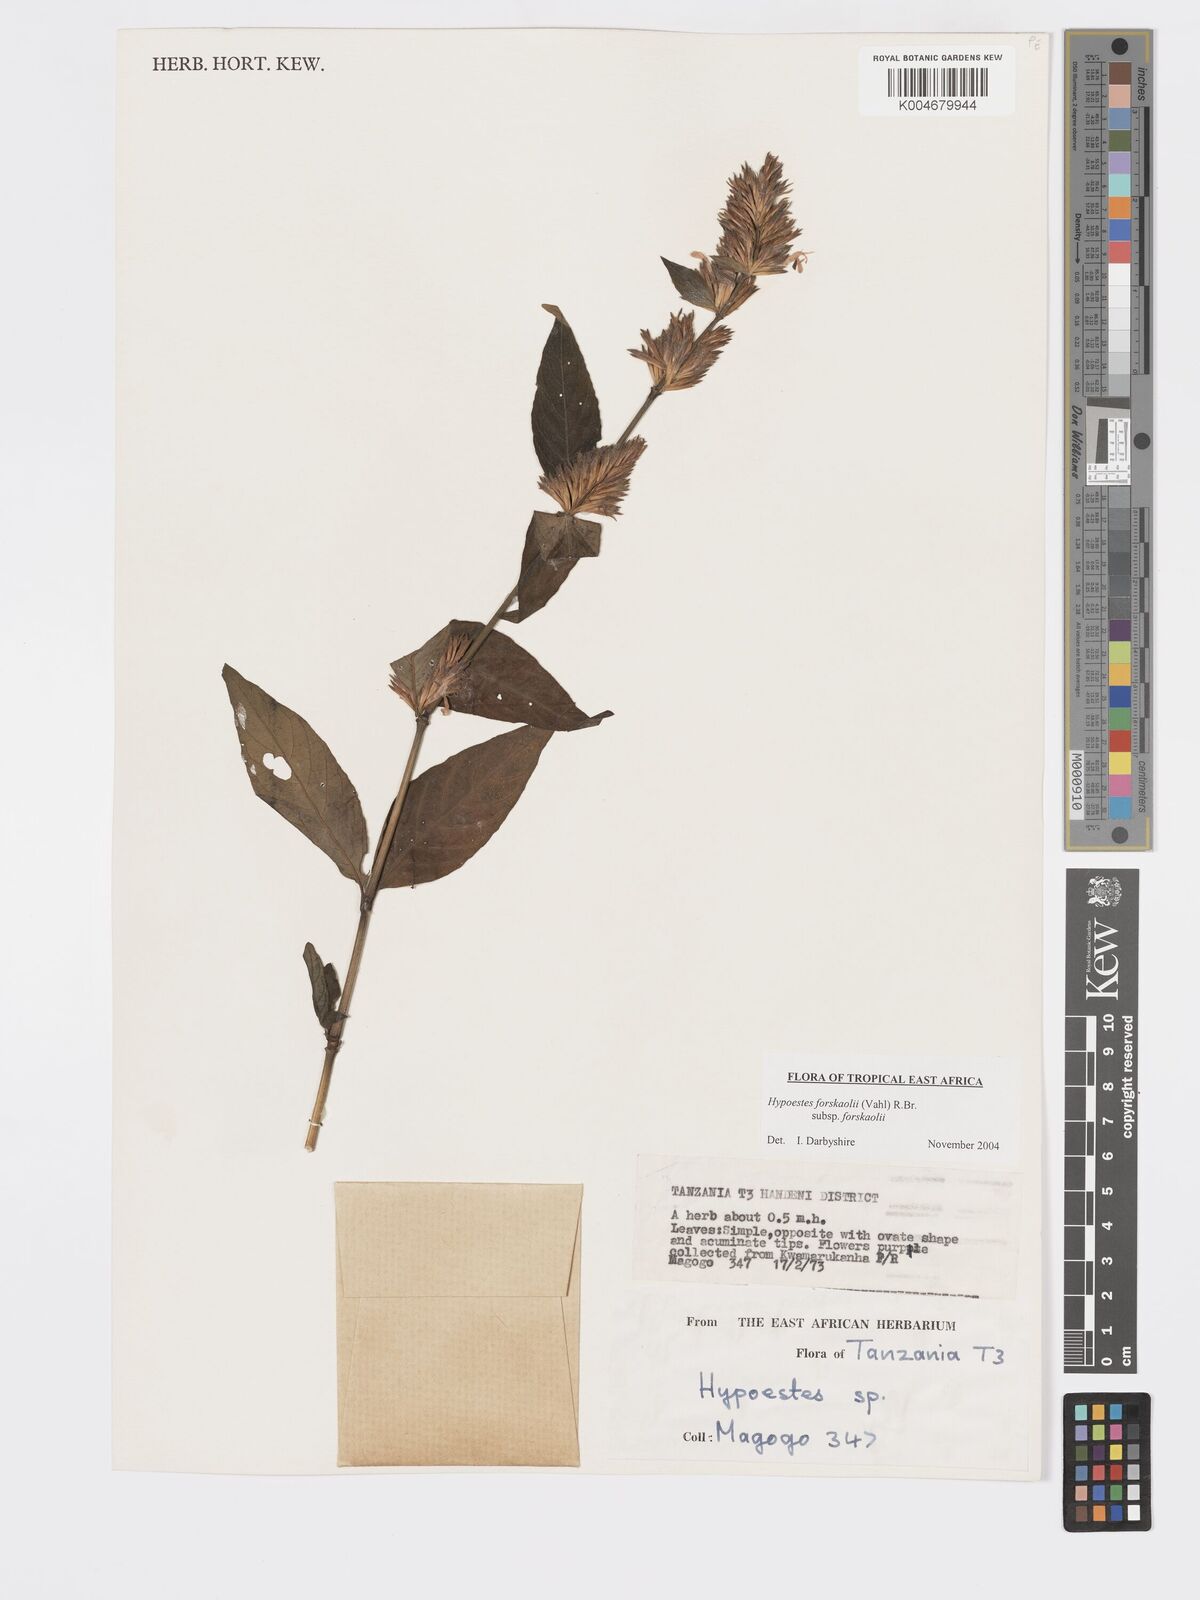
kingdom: Plantae
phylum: Tracheophyta
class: Magnoliopsida
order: Lamiales
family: Acanthaceae
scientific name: Acanthaceae
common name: Acanthaceae
